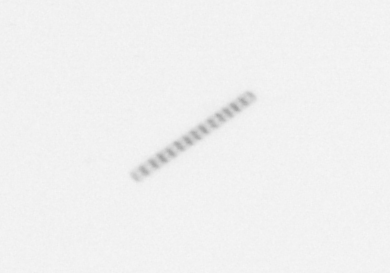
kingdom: Chromista
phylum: Ochrophyta
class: Bacillariophyceae
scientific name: Bacillariophyceae
